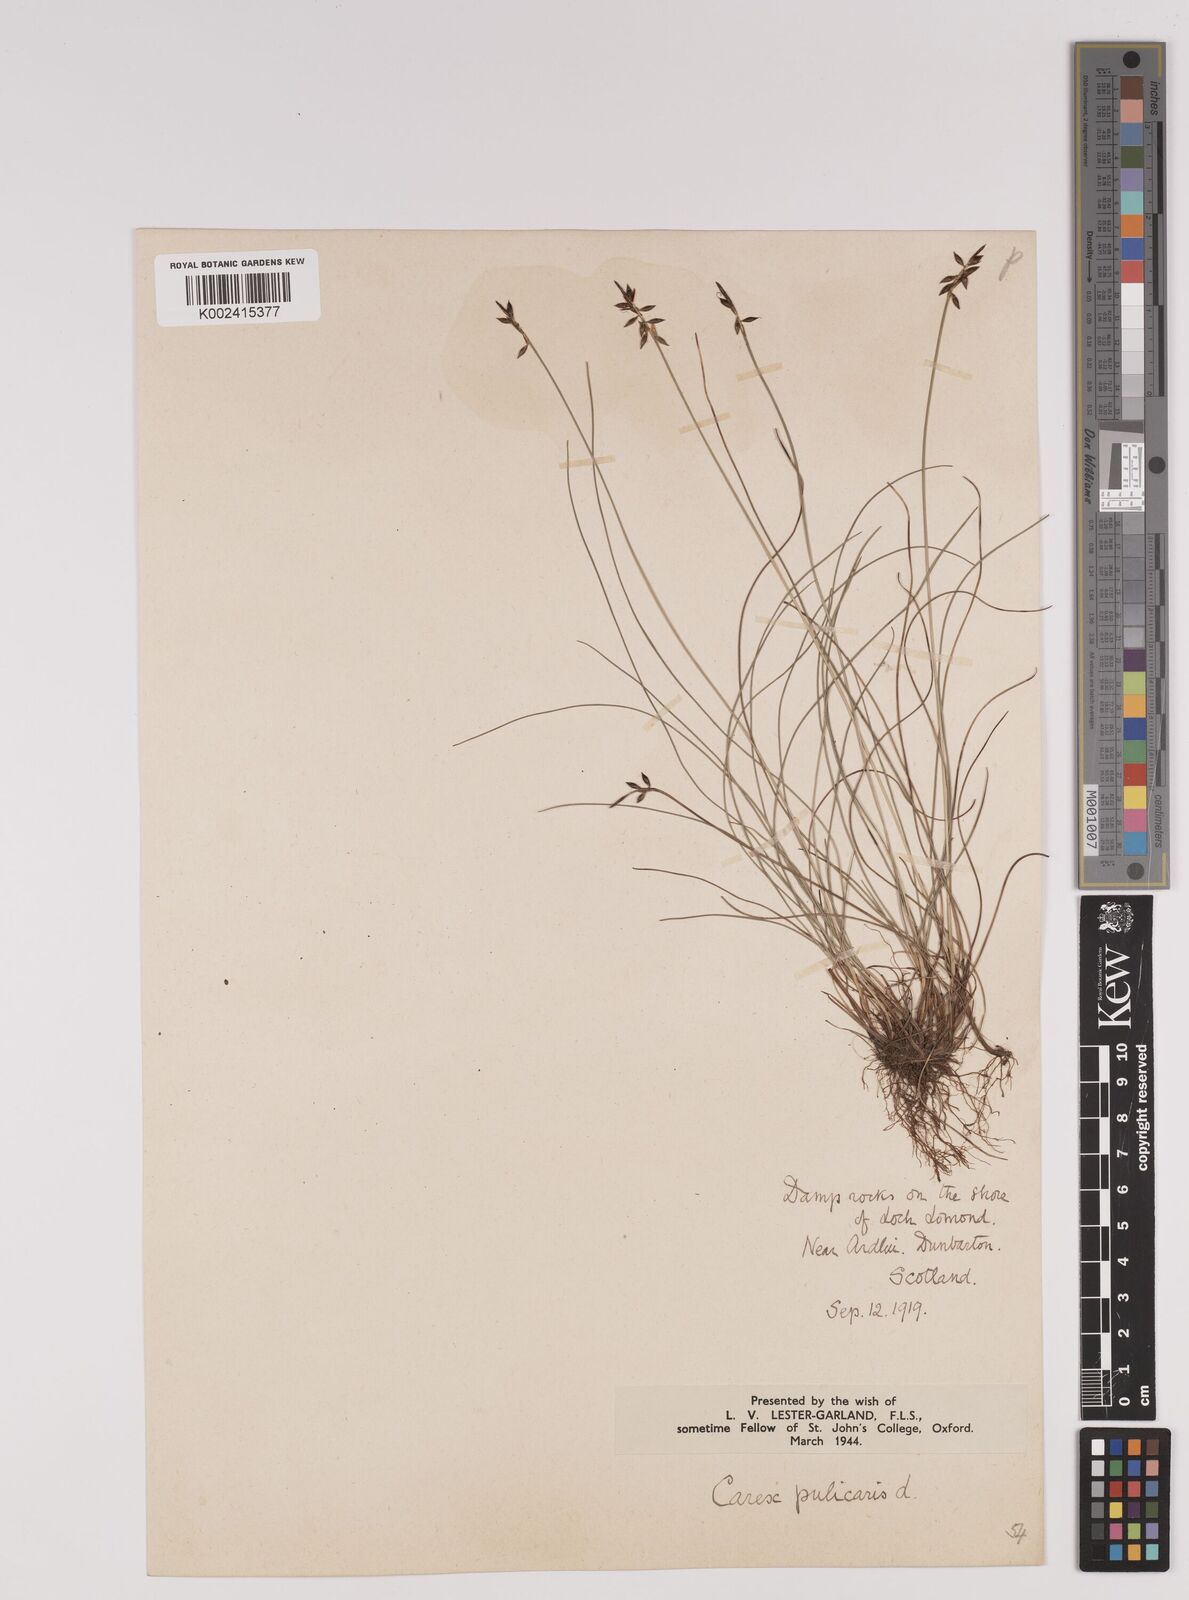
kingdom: Plantae
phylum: Tracheophyta
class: Liliopsida
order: Poales
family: Cyperaceae
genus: Carex
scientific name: Carex pulicaris
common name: Flea sedge
